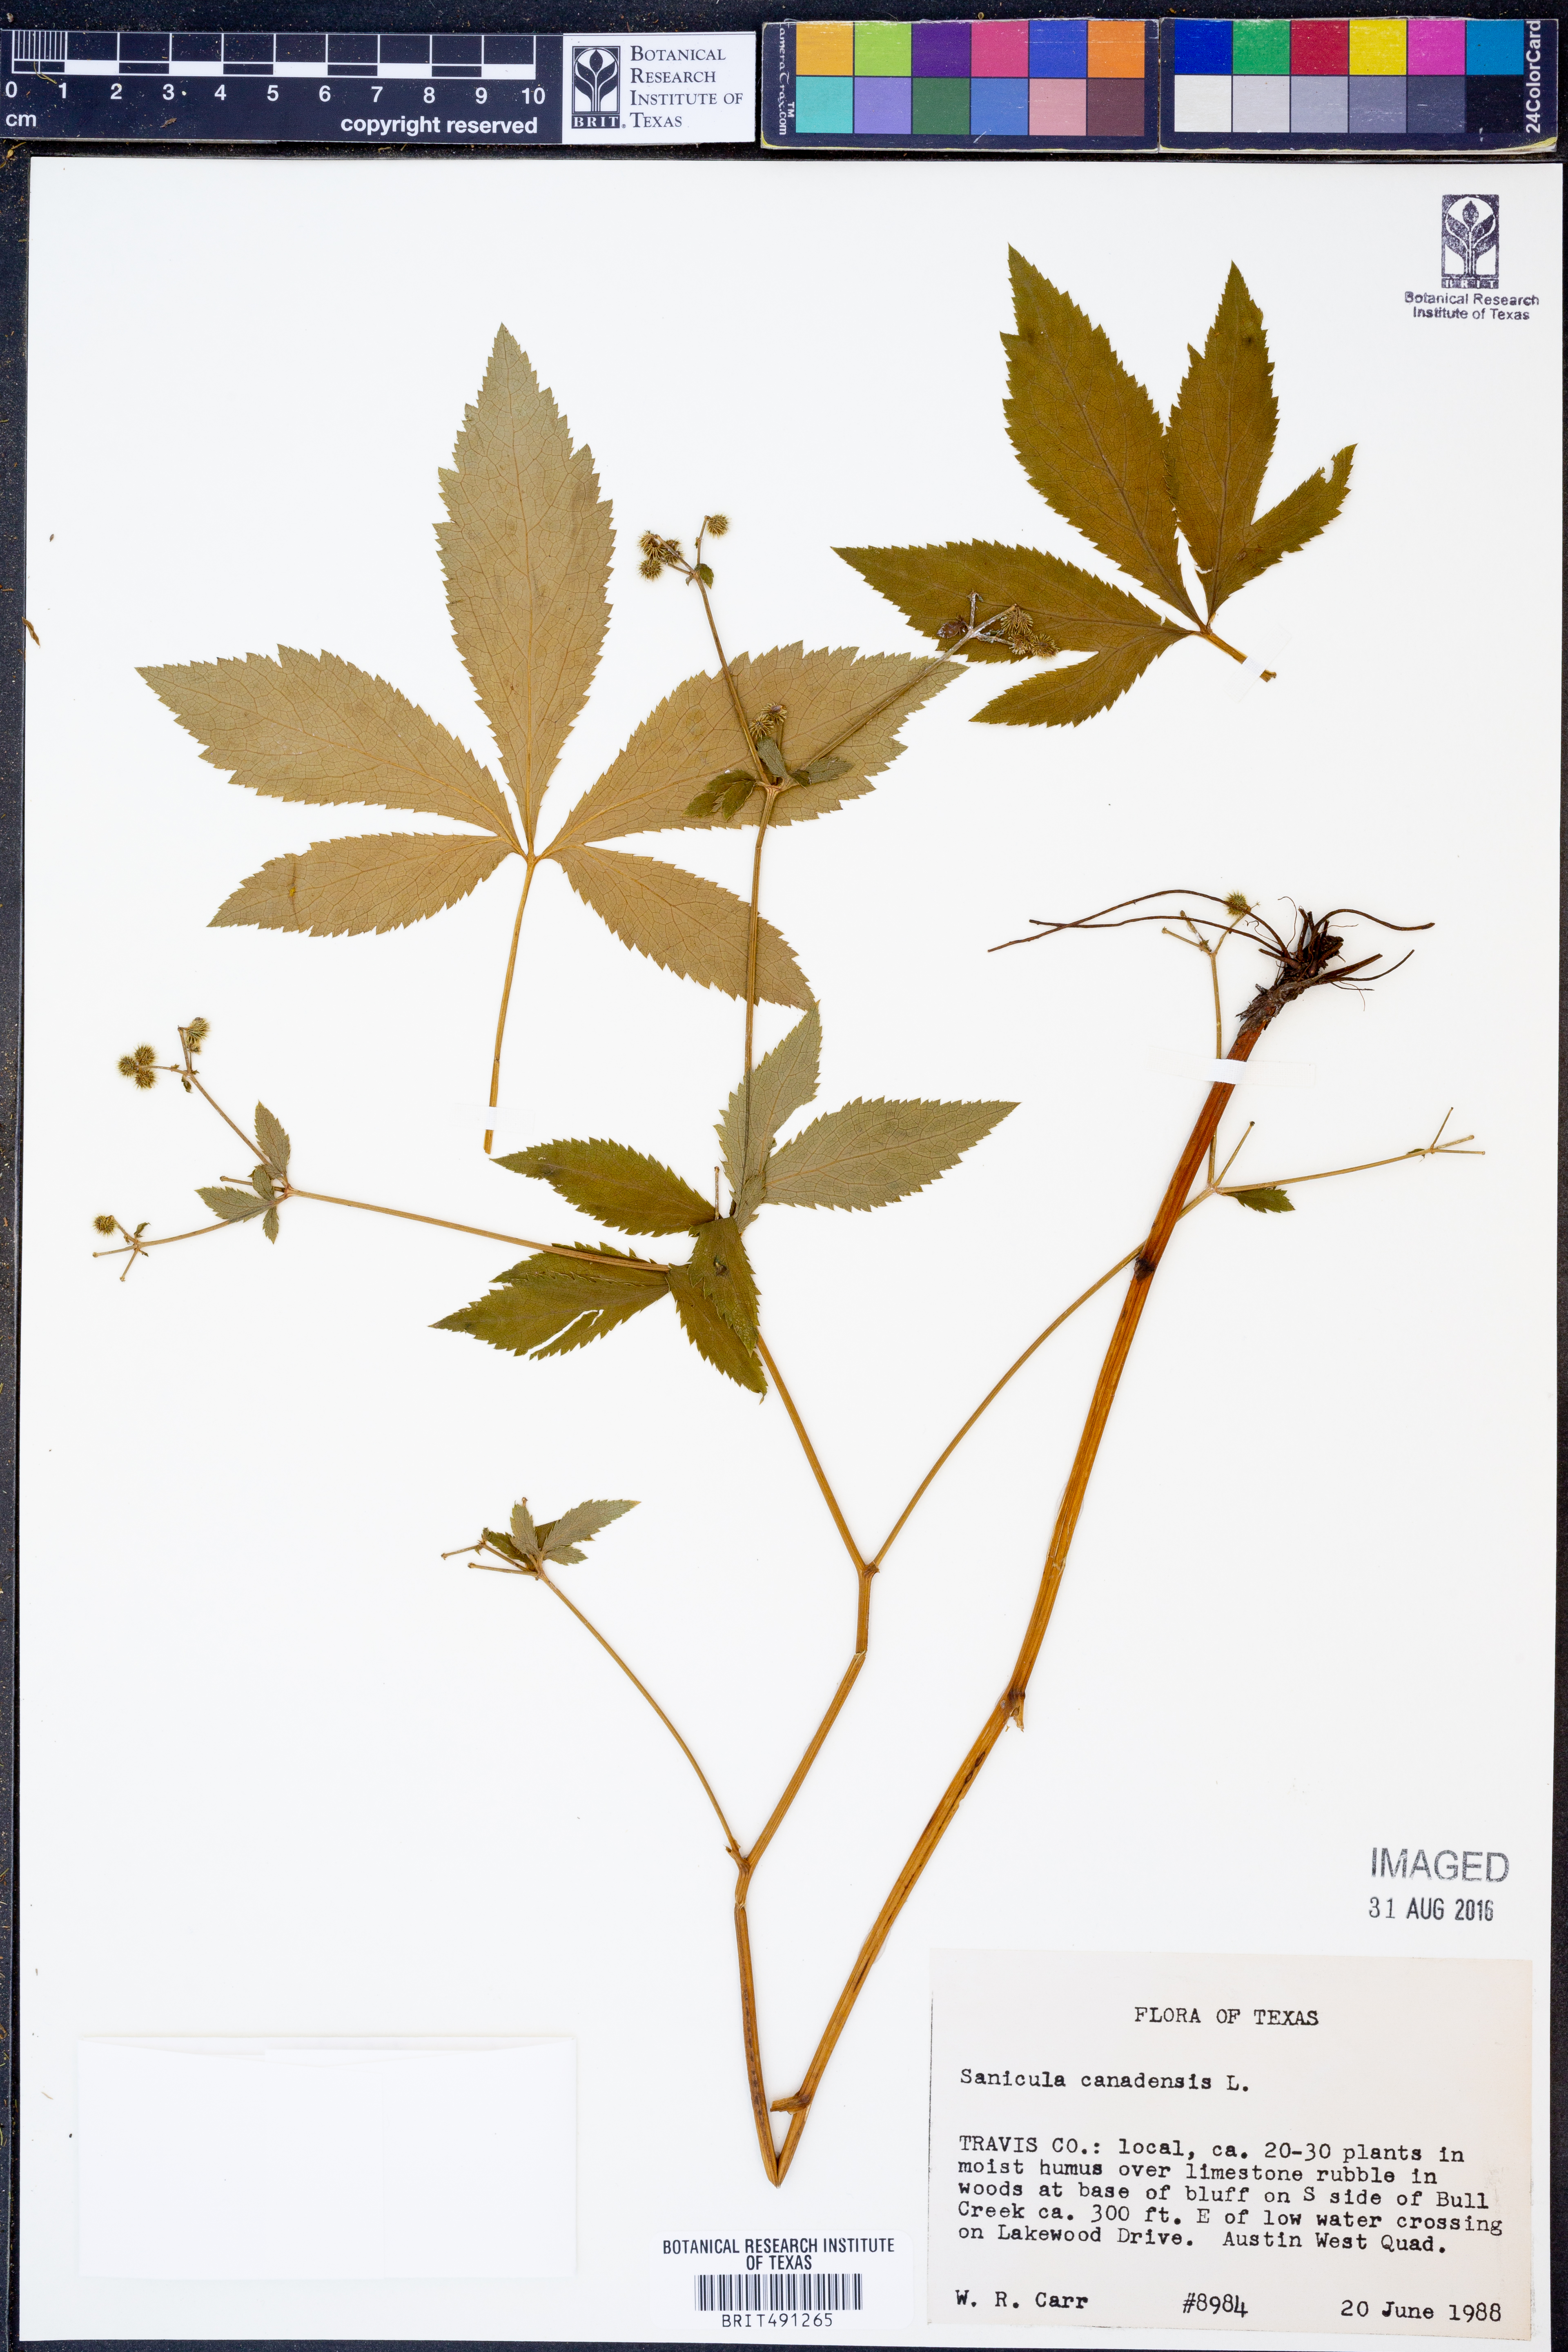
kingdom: Plantae
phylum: Tracheophyta
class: Magnoliopsida
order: Apiales
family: Apiaceae
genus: Sanicula
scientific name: Sanicula canadensis
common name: Canada sanicle
